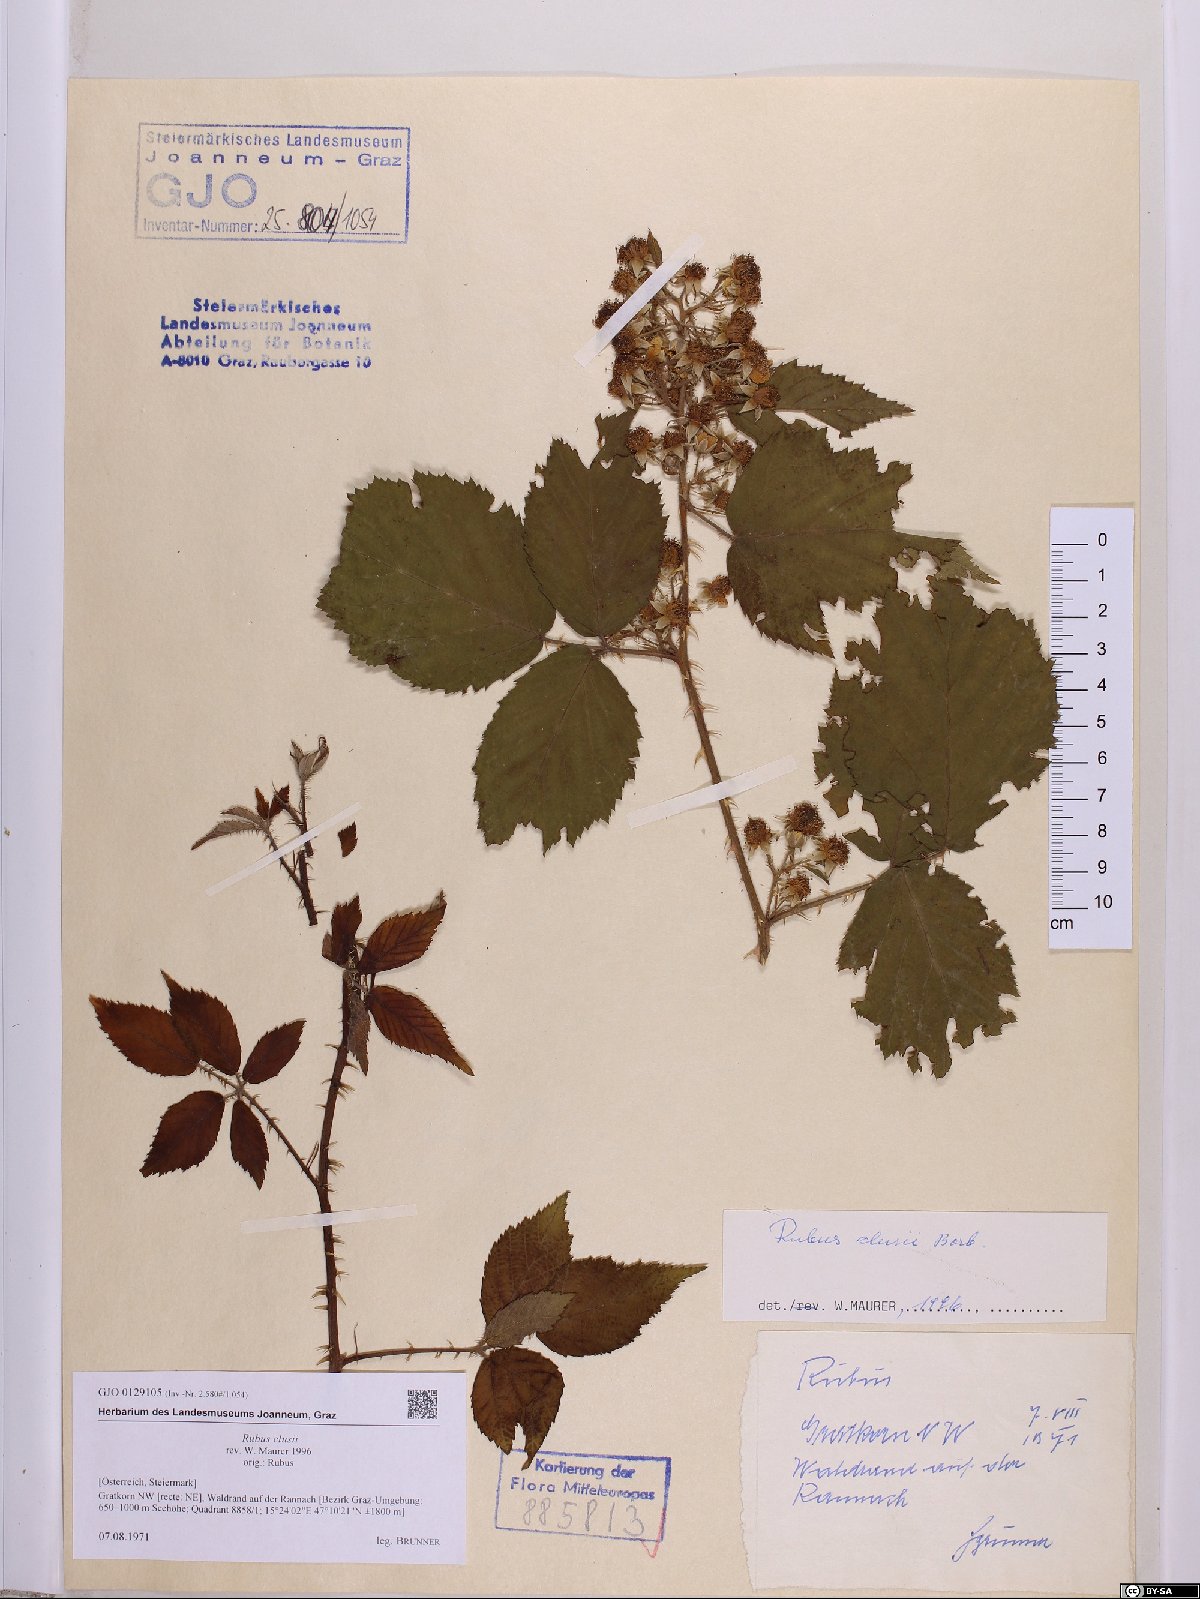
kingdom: Plantae
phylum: Tracheophyta
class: Magnoliopsida
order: Rosales
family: Rosaceae
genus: Rubus
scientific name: Rubus clusii
